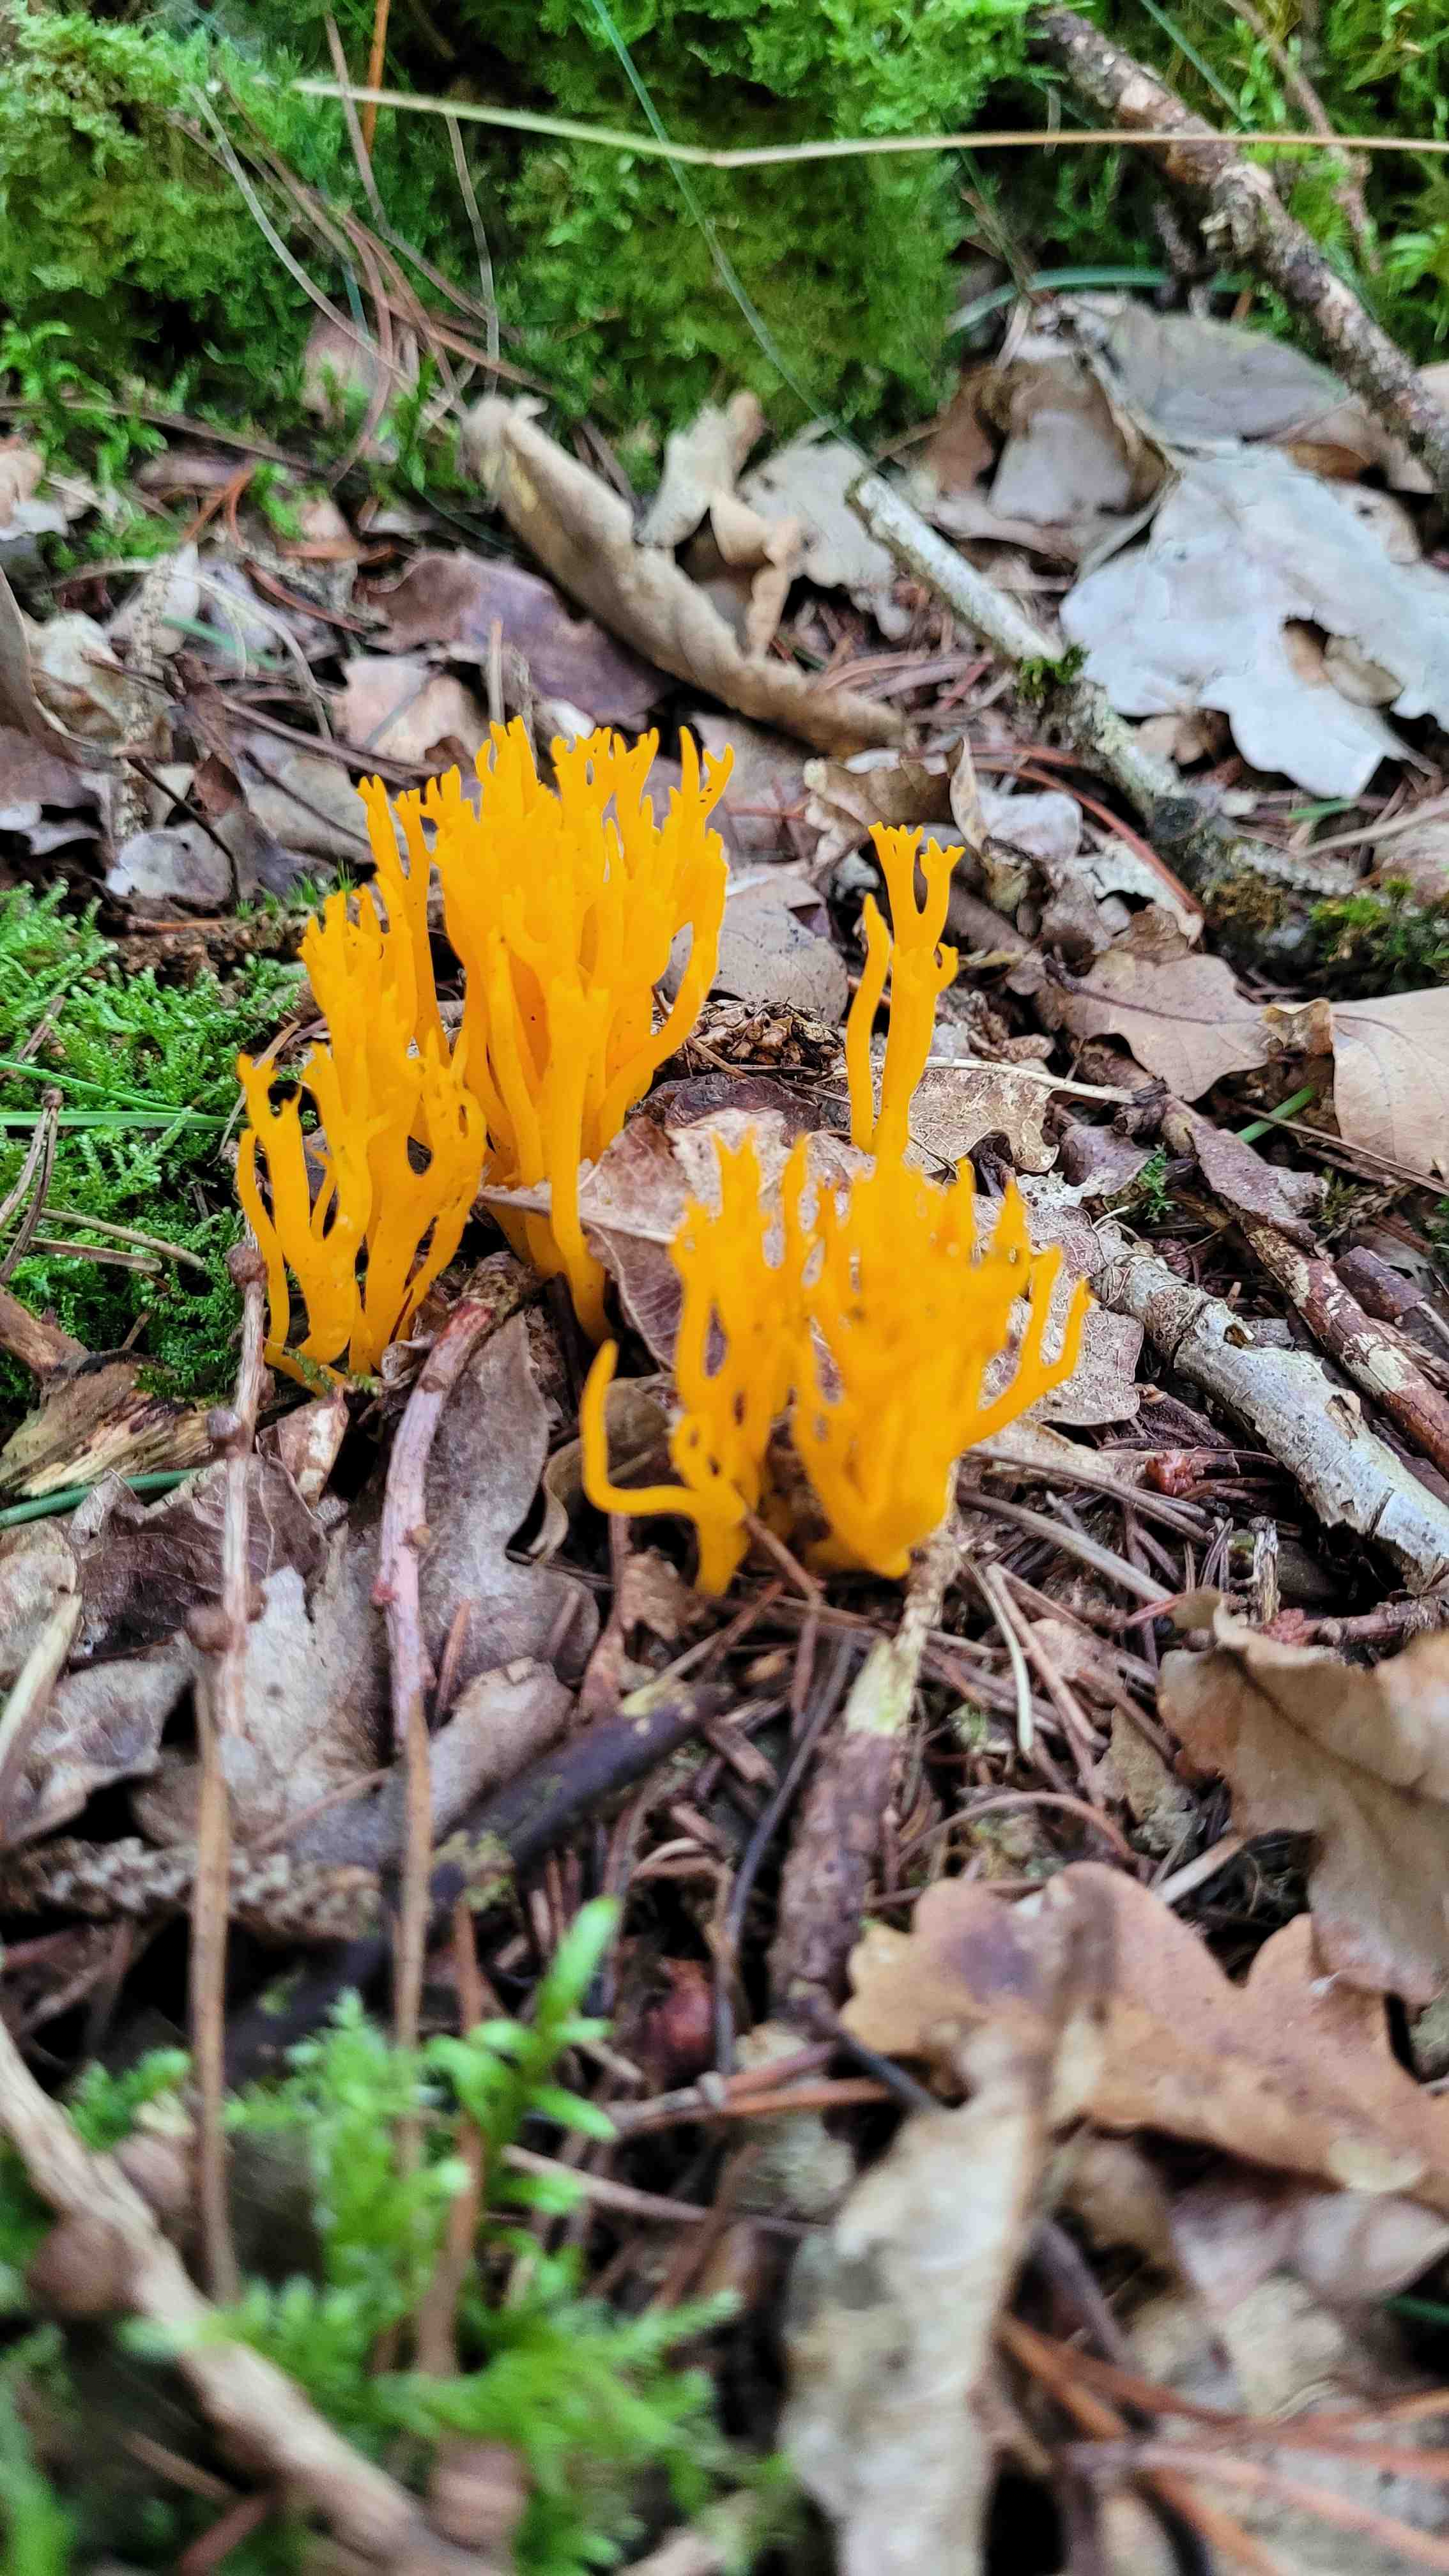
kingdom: Fungi
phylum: Basidiomycota
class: Dacrymycetes
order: Dacrymycetales
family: Dacrymycetaceae
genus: Calocera
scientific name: Calocera viscosa
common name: almindelig guldgaffel
